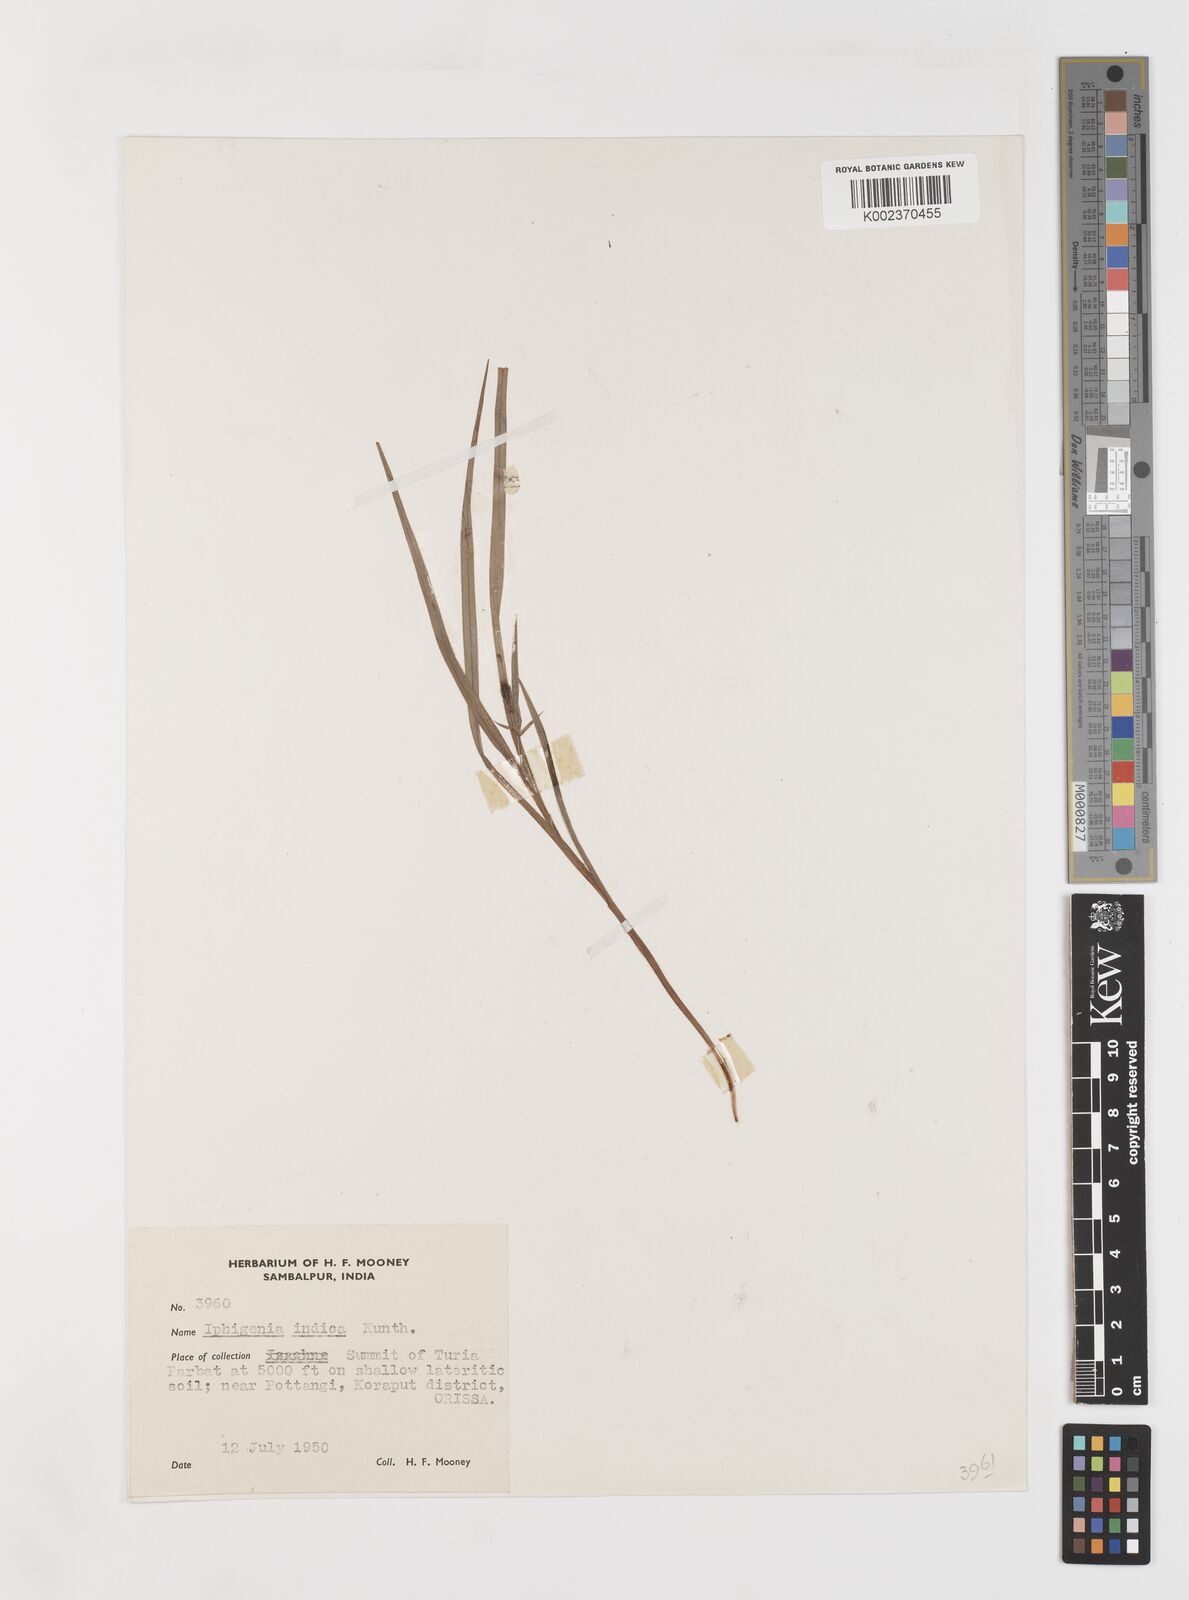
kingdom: Plantae
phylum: Tracheophyta
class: Liliopsida
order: Liliales
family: Colchicaceae
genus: Iphigenia
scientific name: Iphigenia indica
